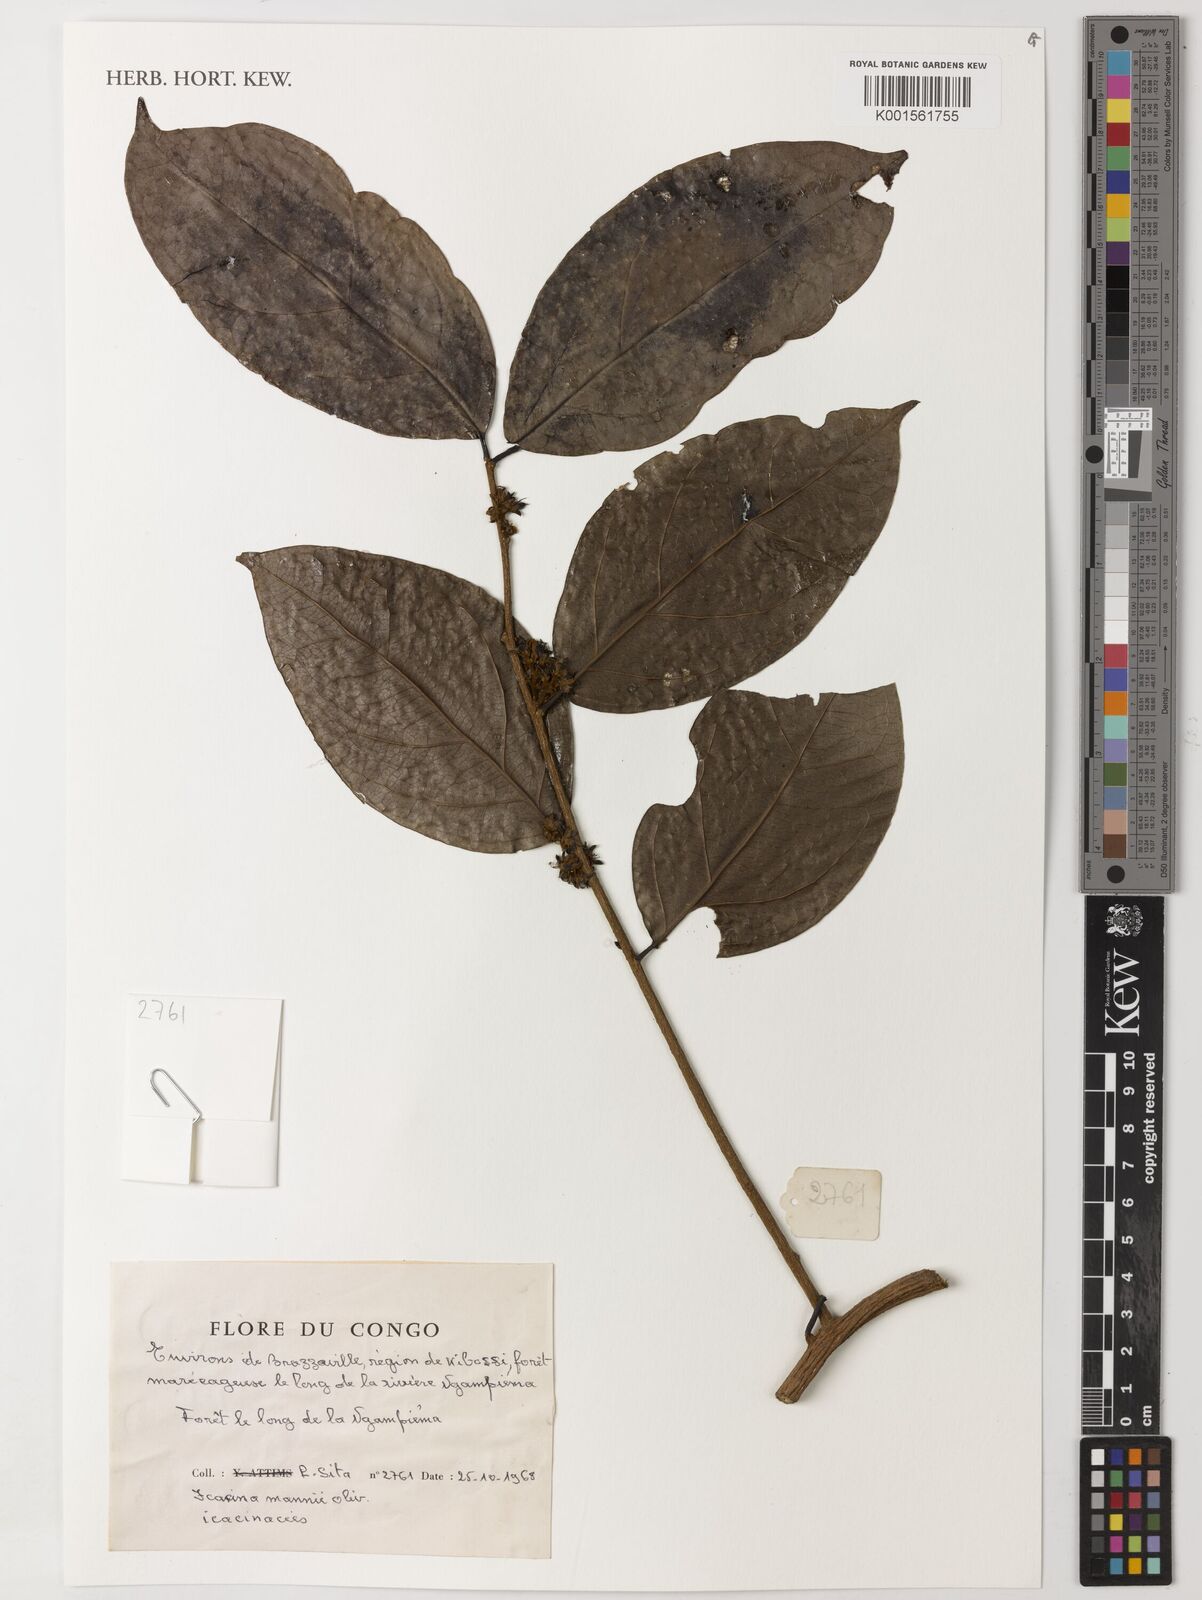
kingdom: Plantae
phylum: Tracheophyta
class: Magnoliopsida
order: Icacinales
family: Icacinaceae
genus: Icacina
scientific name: Icacina mannii
